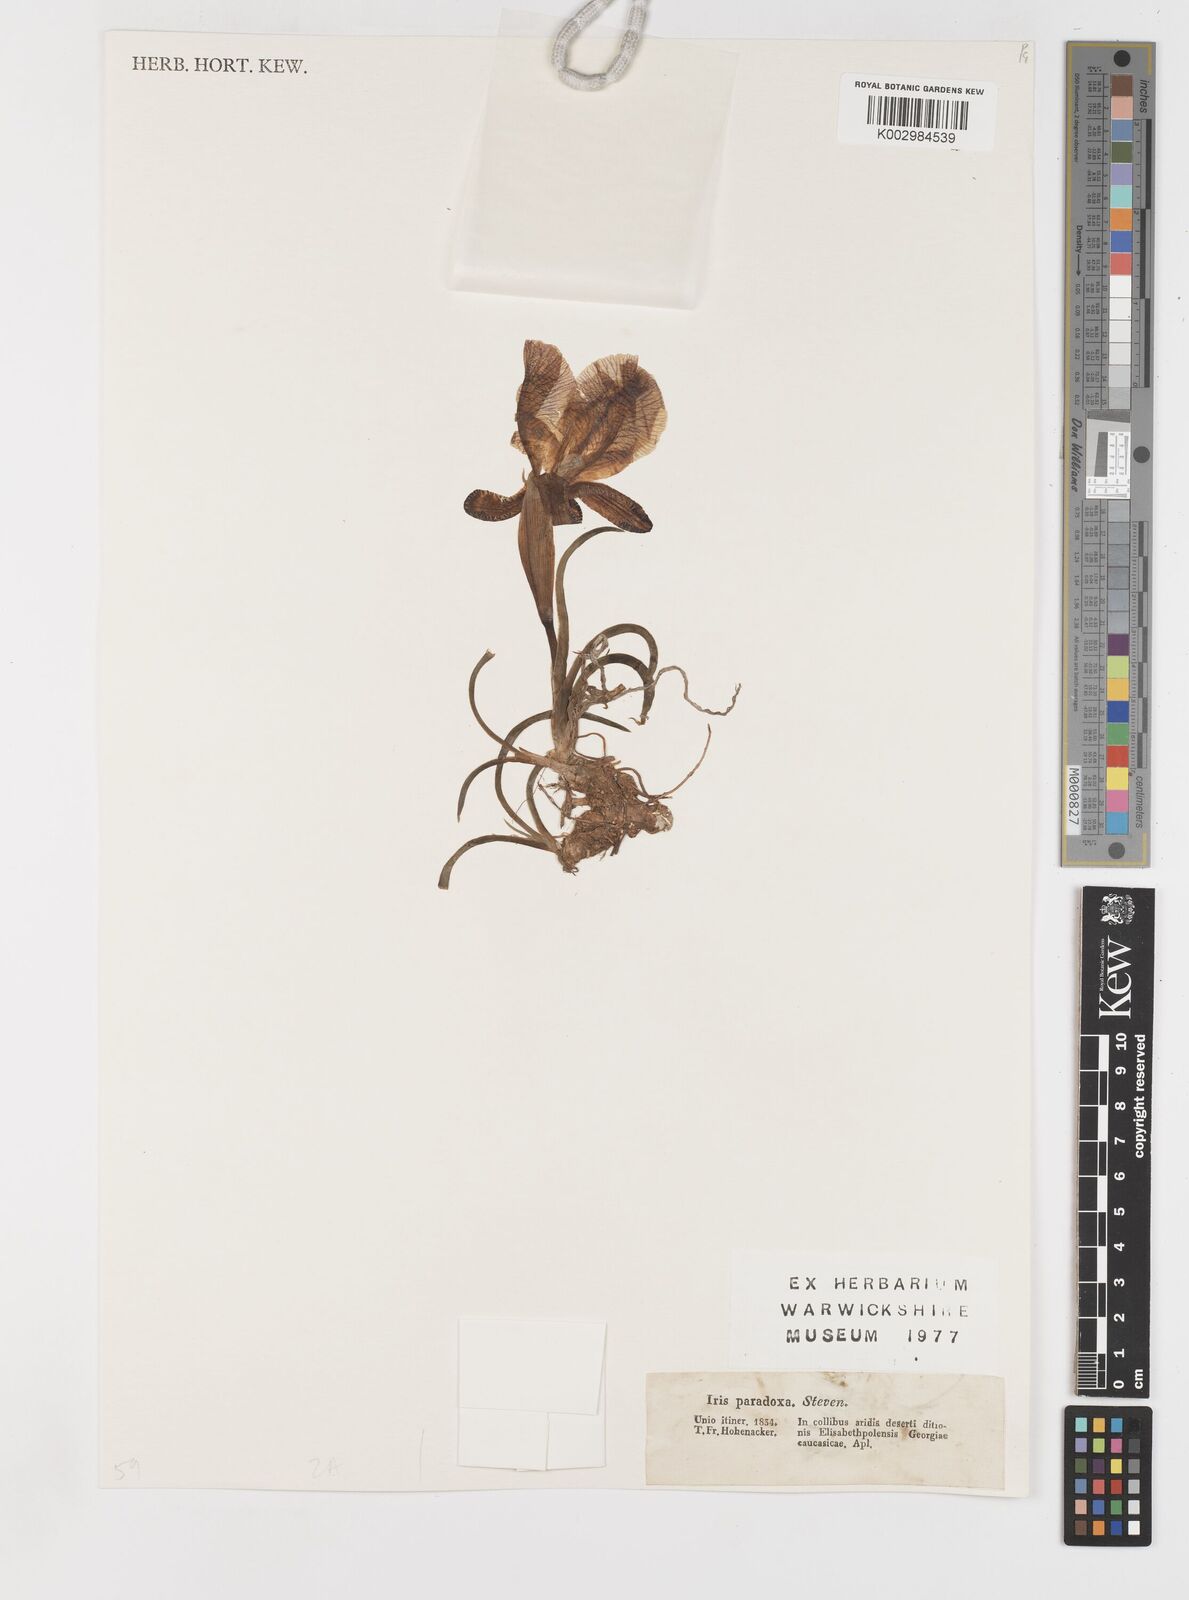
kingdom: Plantae
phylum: Tracheophyta
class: Liliopsida
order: Asparagales
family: Iridaceae
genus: Iris
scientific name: Iris paradoxa
